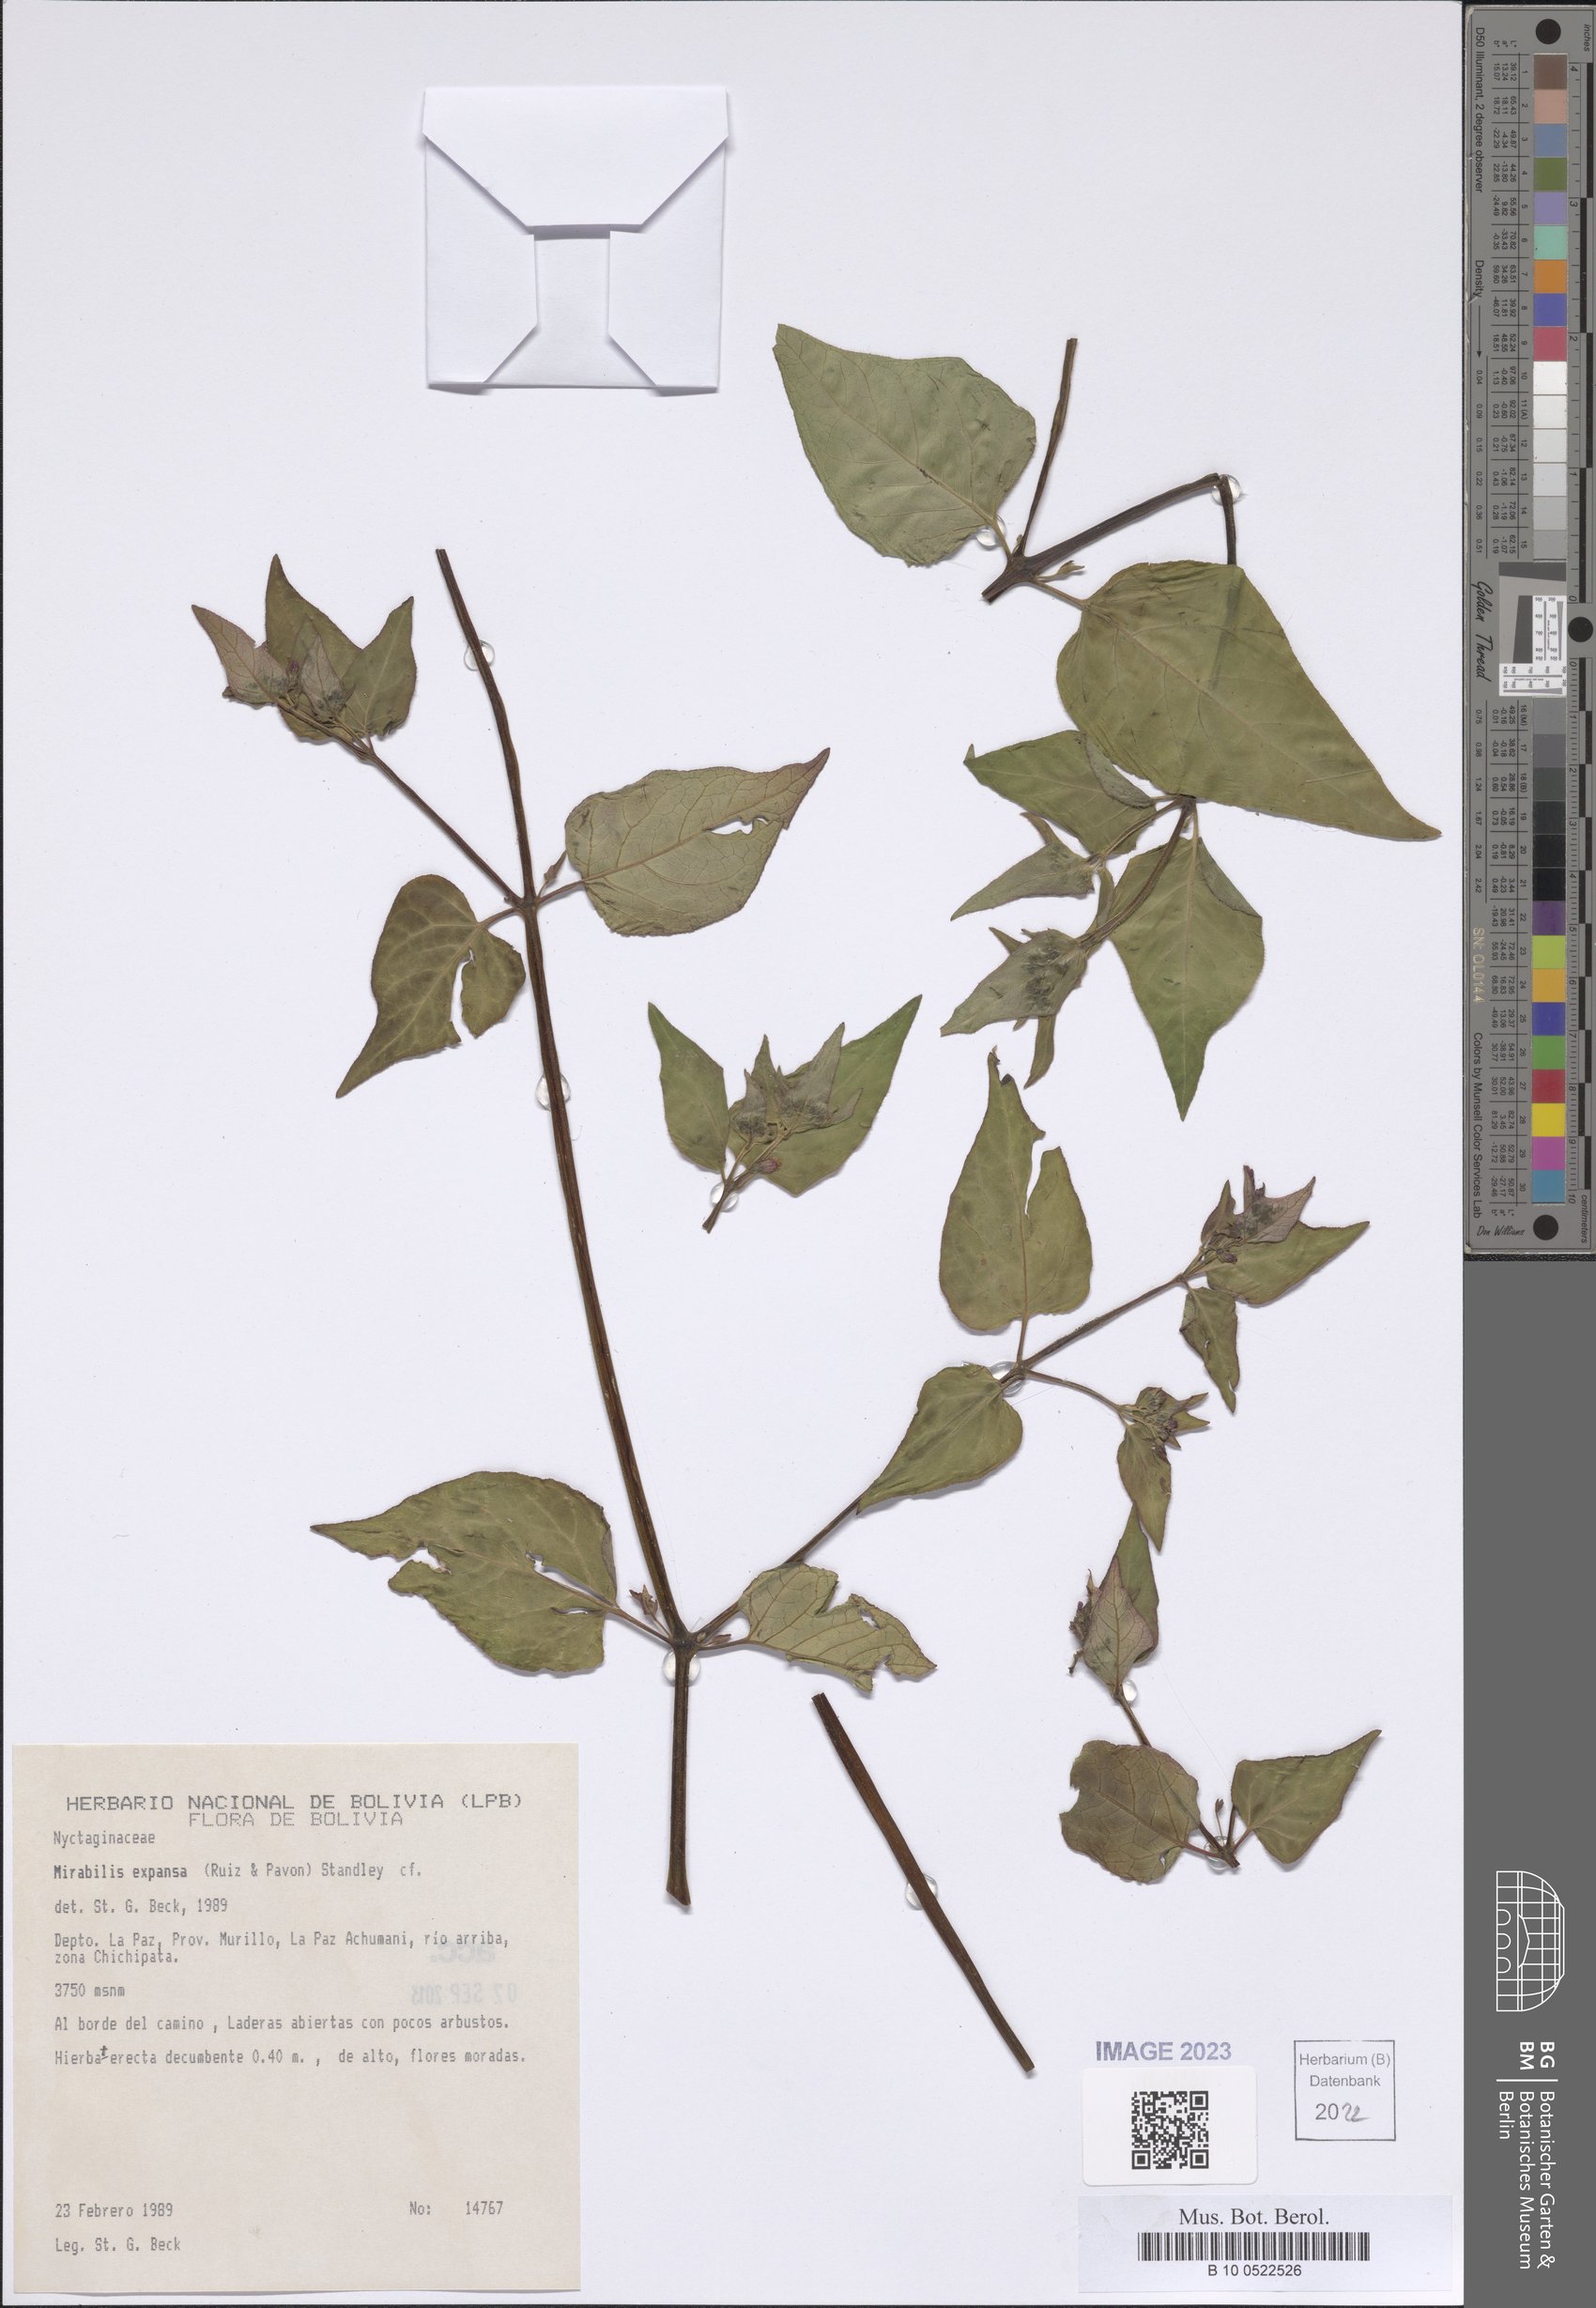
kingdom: Plantae
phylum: Tracheophyta
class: Magnoliopsida
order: Caryophyllales
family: Nyctaginaceae
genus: Mirabilis
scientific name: Mirabilis expansa
